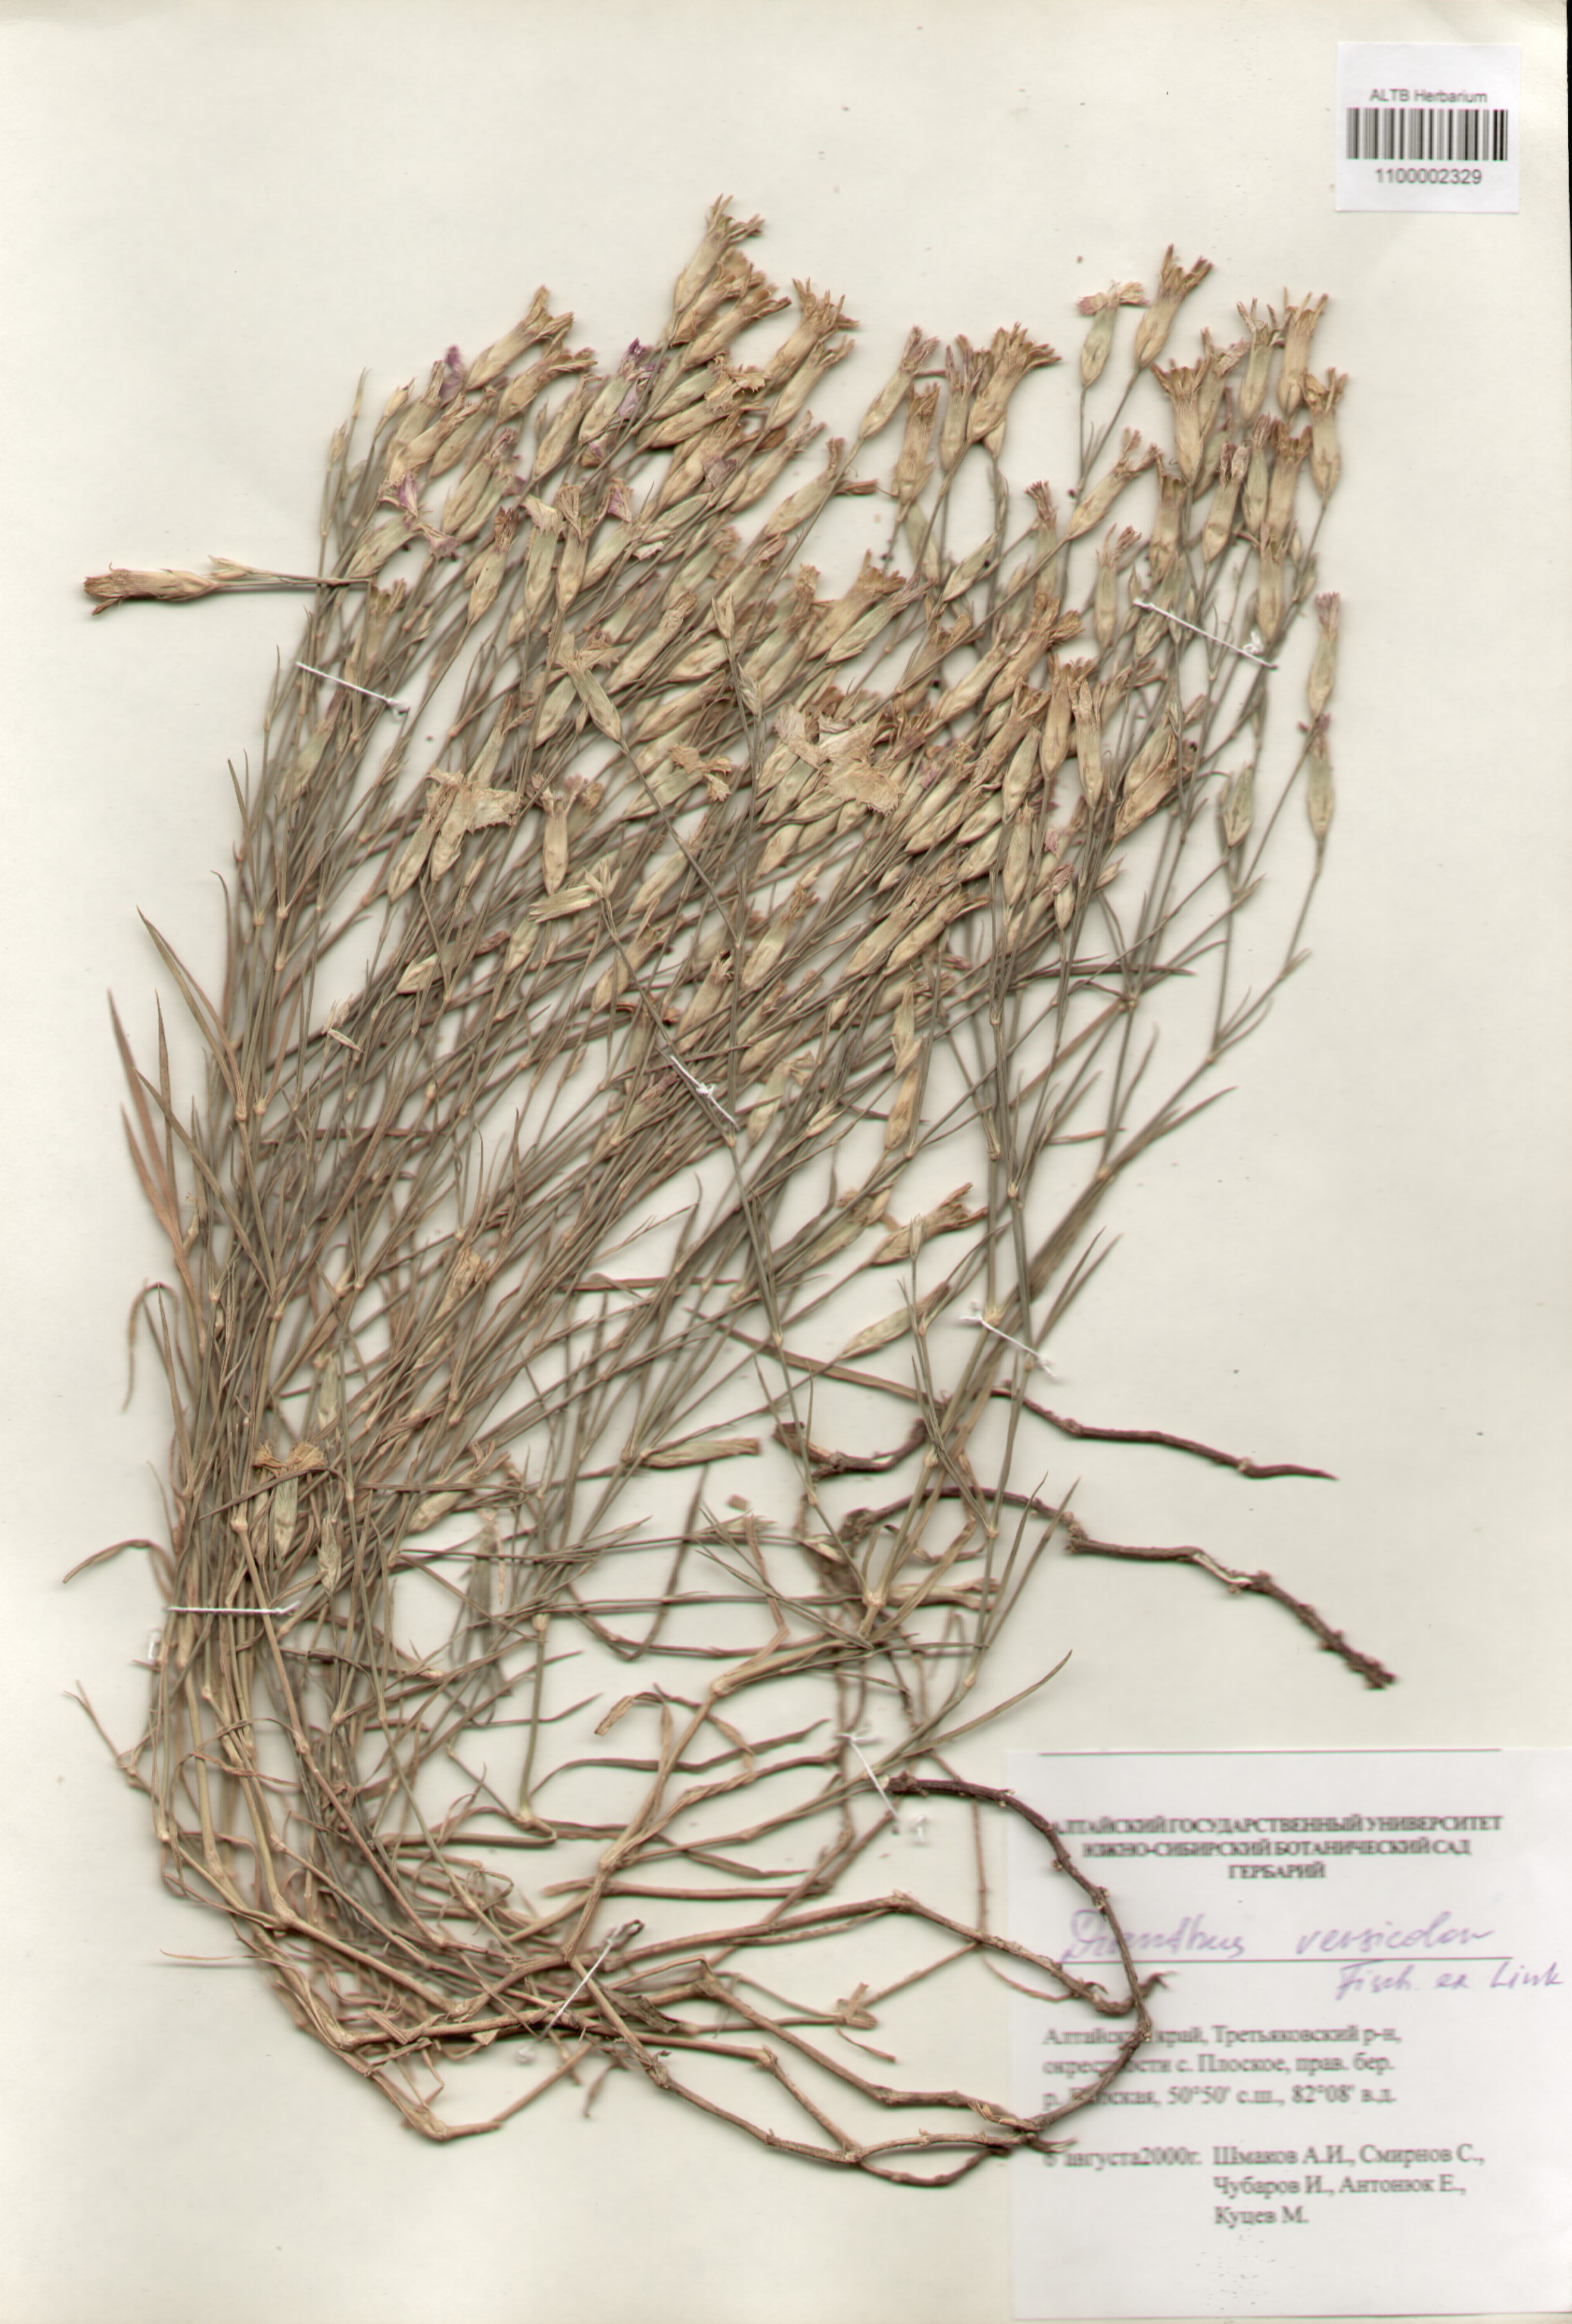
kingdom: Plantae
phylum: Tracheophyta
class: Magnoliopsida
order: Caryophyllales
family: Caryophyllaceae
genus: Dianthus
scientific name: Dianthus chinensis
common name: Rainbow pink
